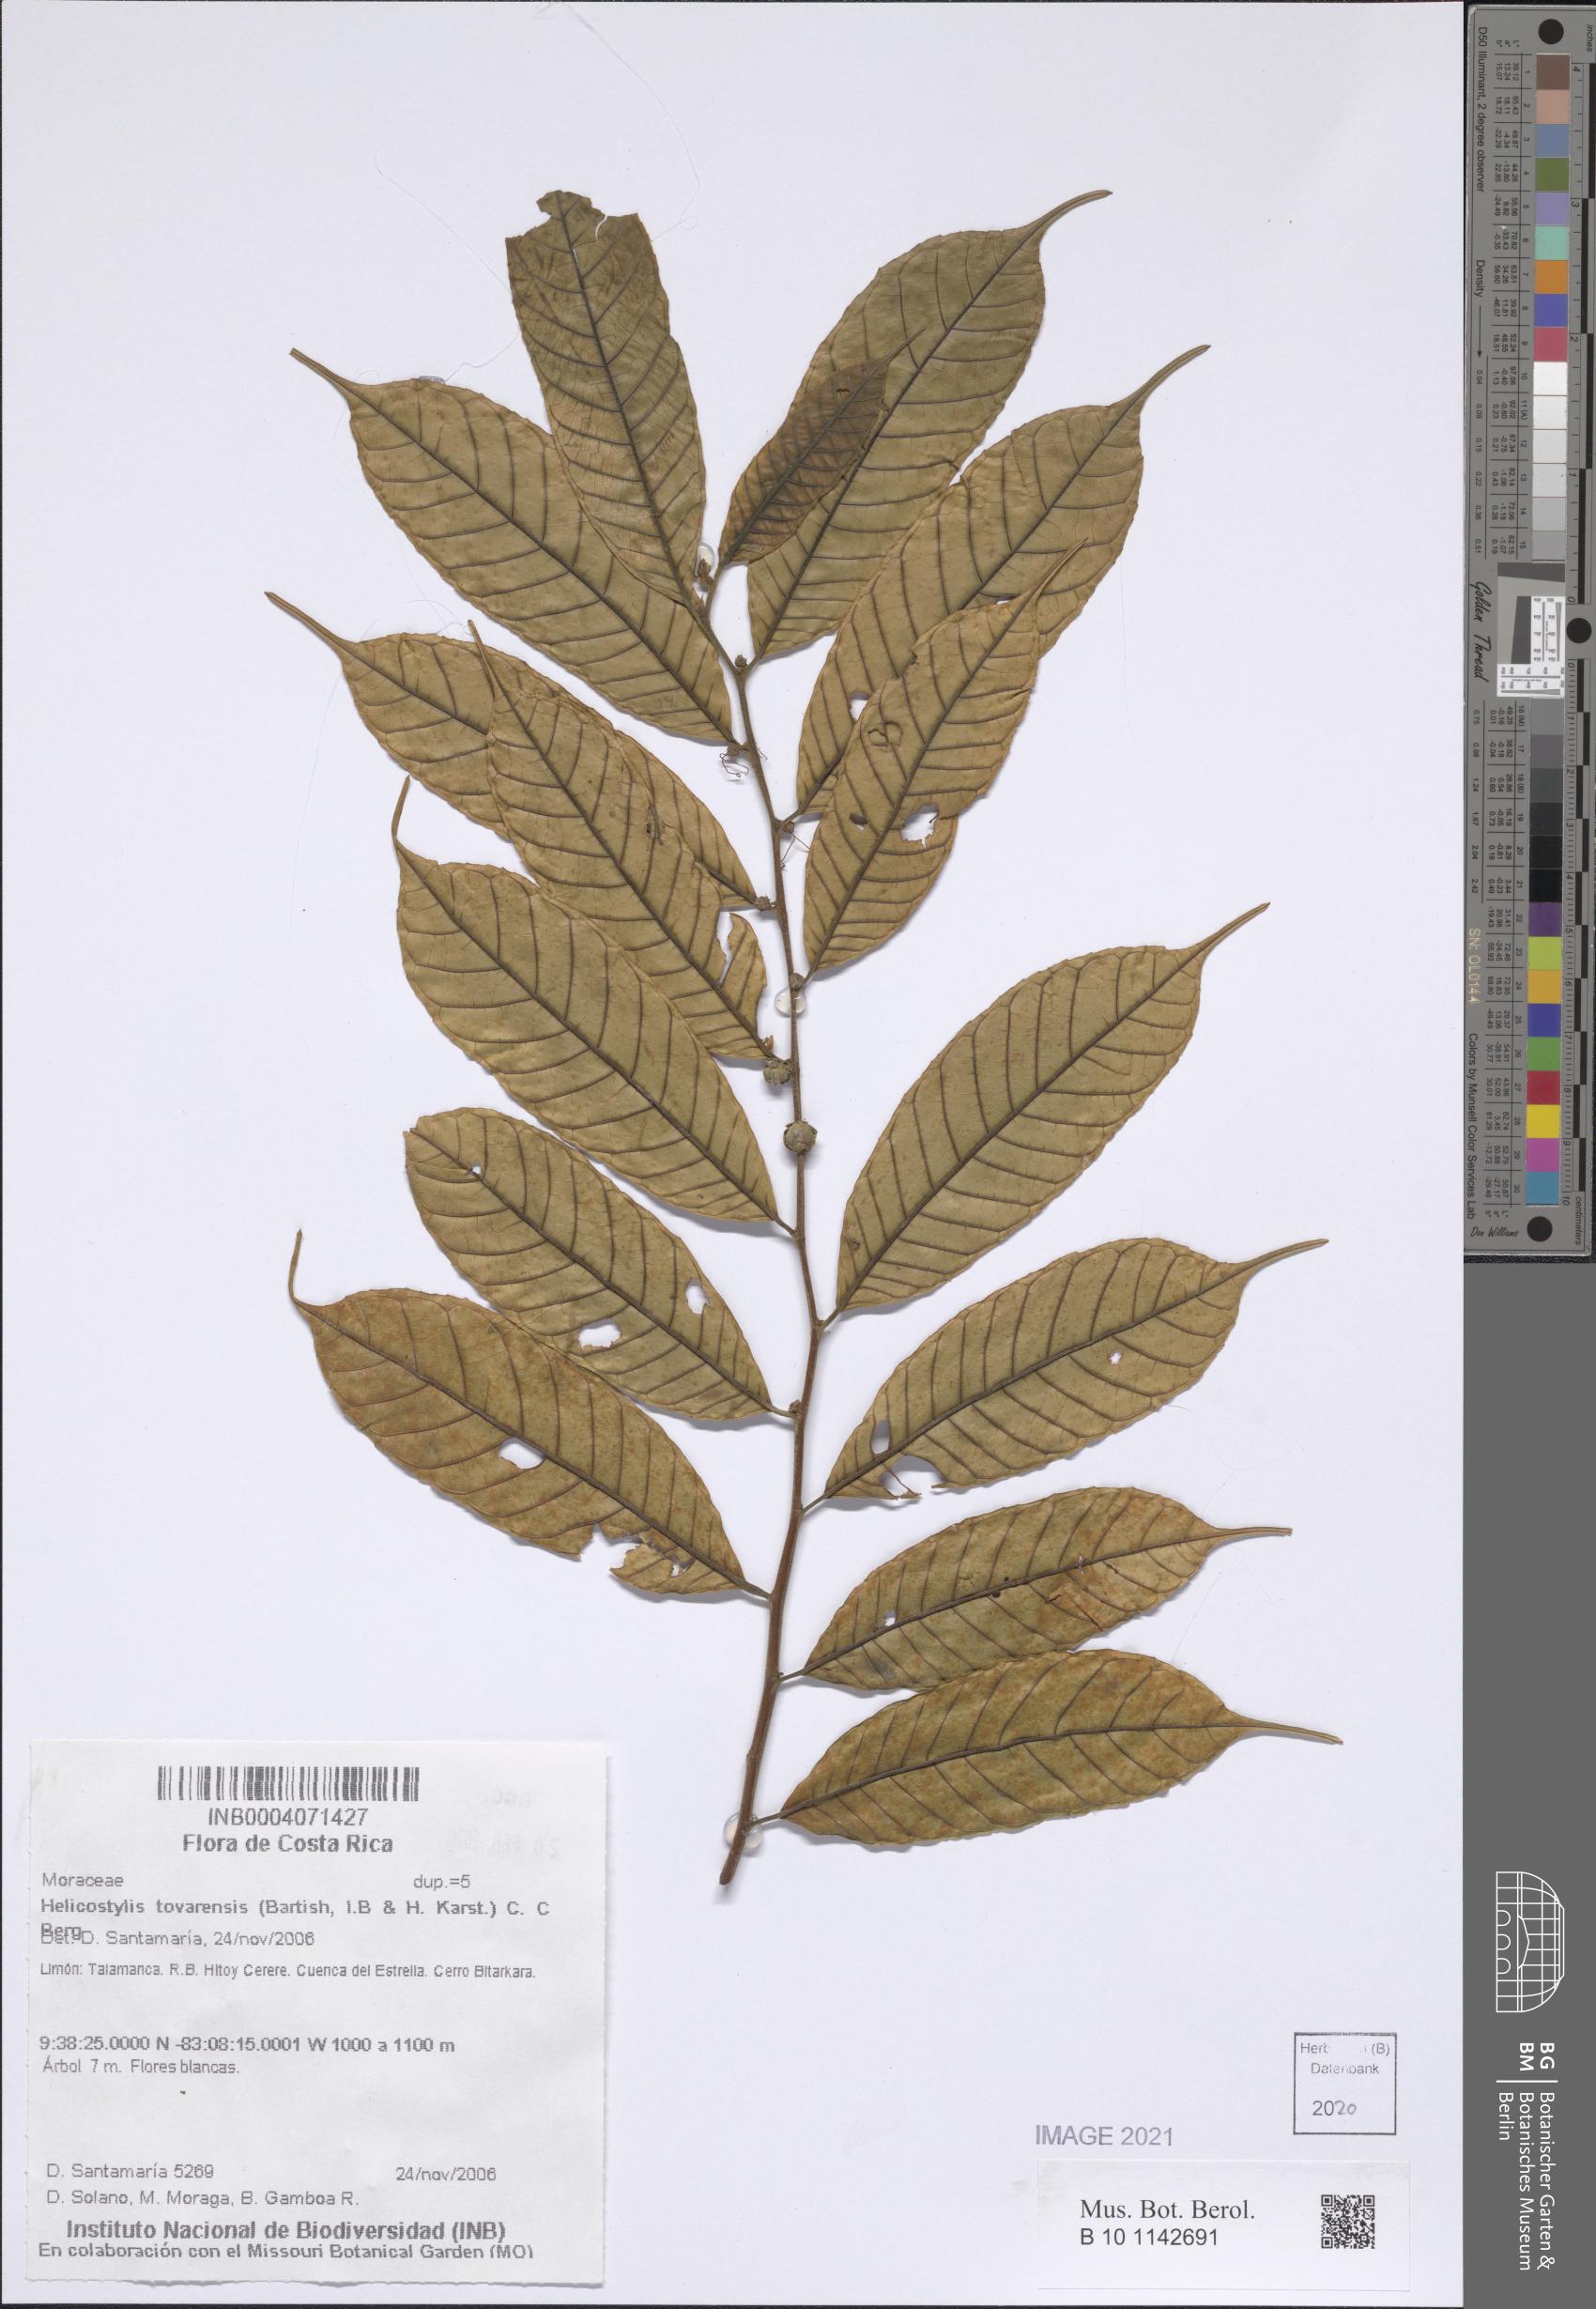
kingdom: Plantae
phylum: Tracheophyta
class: Magnoliopsida
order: Rosales
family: Moraceae
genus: Helicostylis
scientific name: Helicostylis tovarensis
